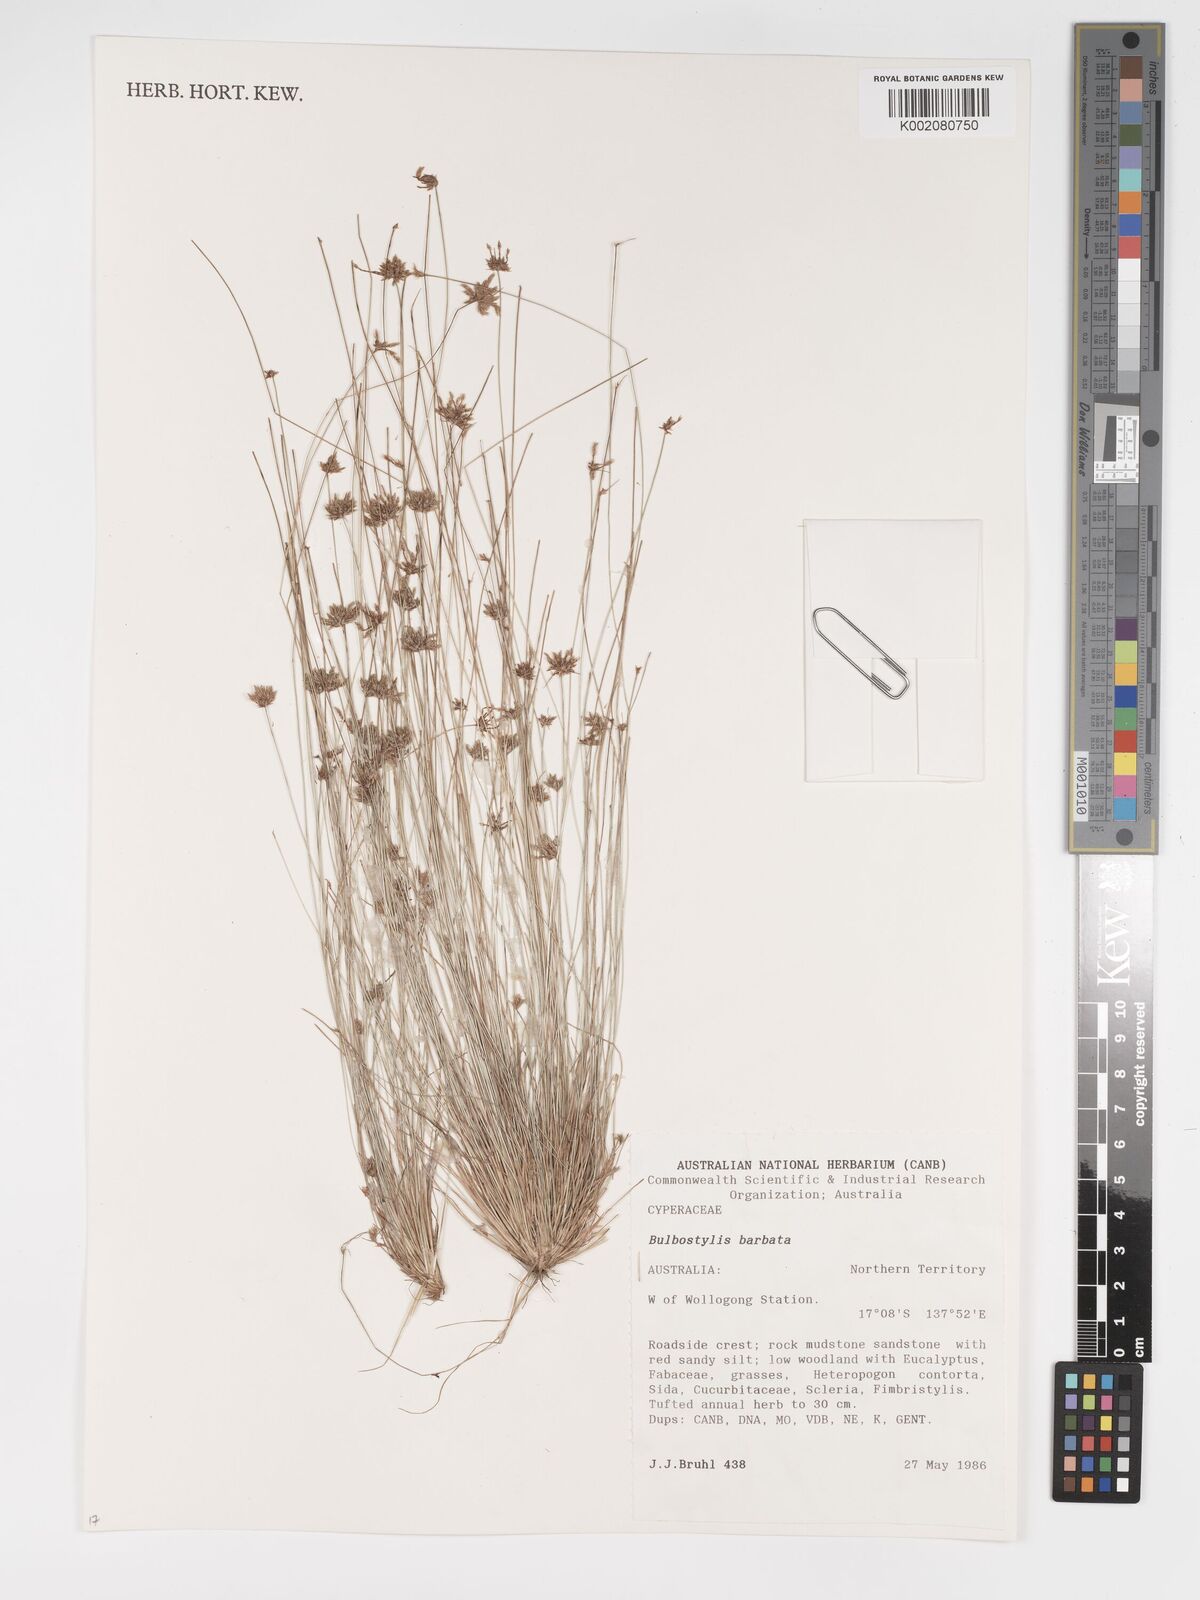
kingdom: Plantae
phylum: Tracheophyta
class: Liliopsida
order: Poales
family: Cyperaceae
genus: Bulbostylis
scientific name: Bulbostylis barbata
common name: Watergrass
